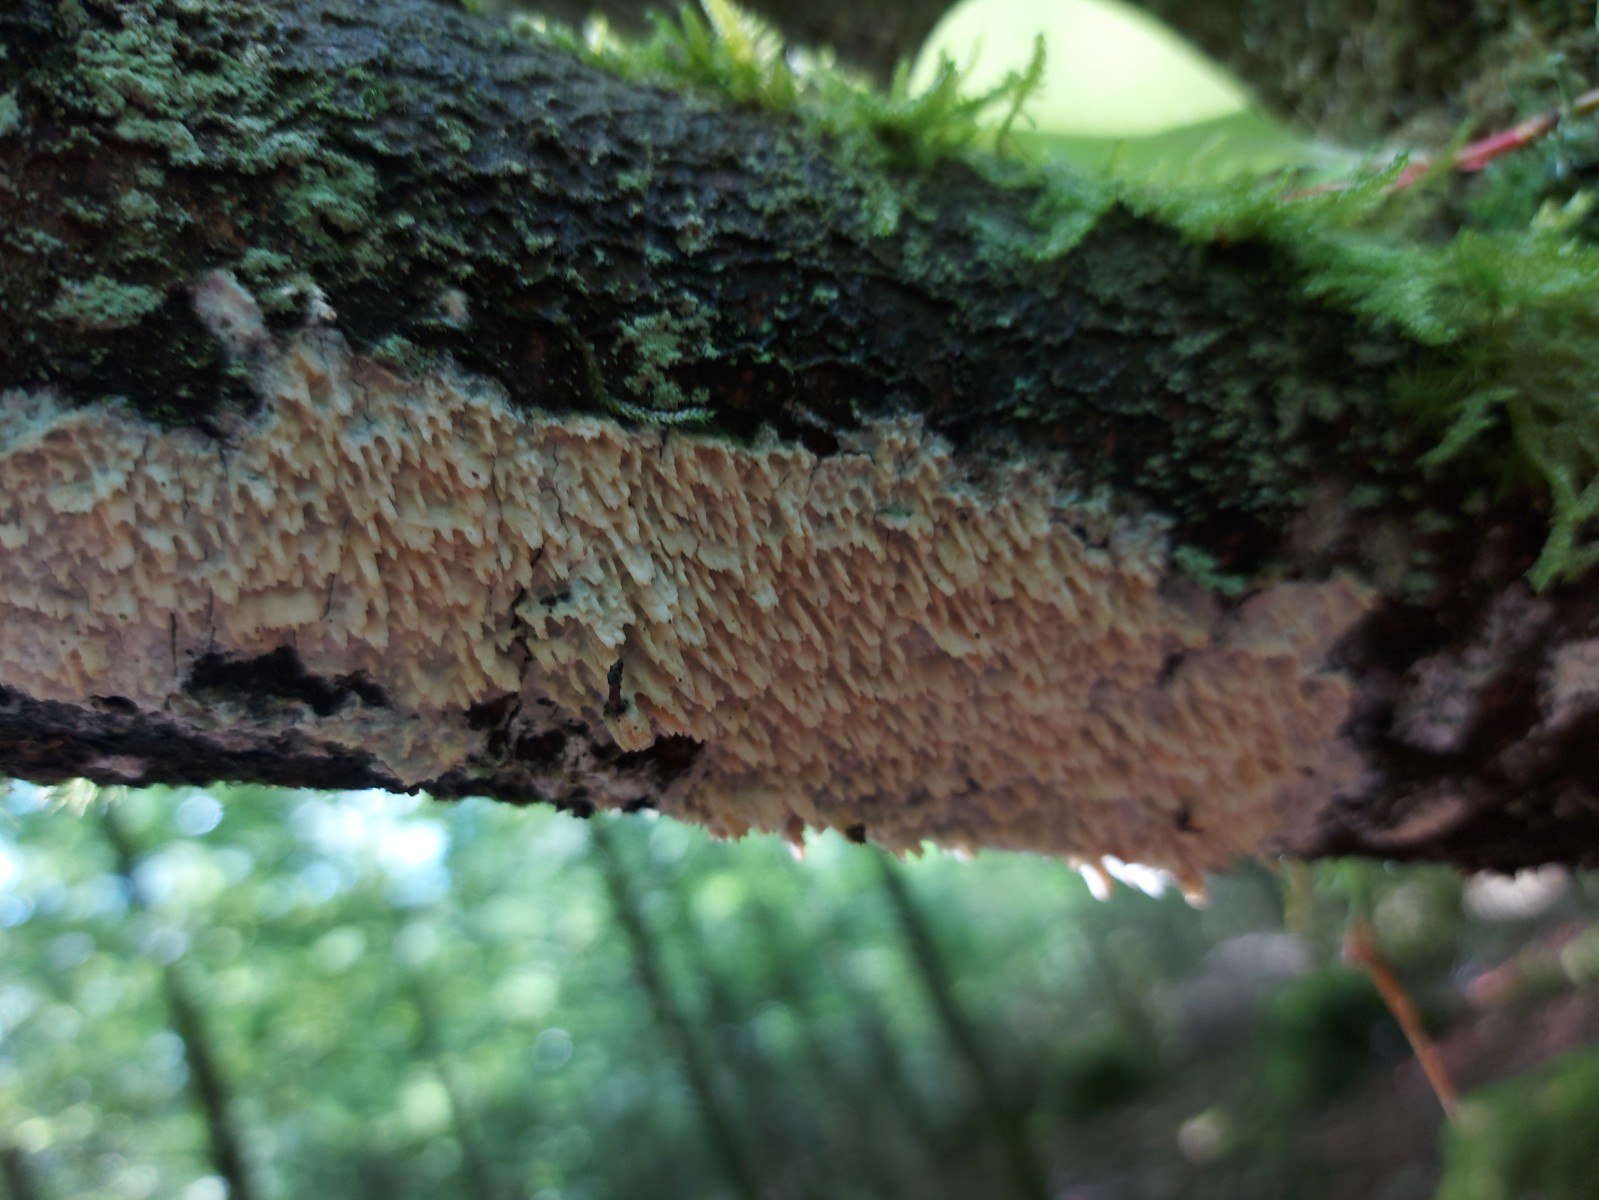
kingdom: Fungi
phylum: Basidiomycota
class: Agaricomycetes
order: Hymenochaetales
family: Schizoporaceae
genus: Xylodon
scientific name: Xylodon radula
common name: grovtandet kalkskind
